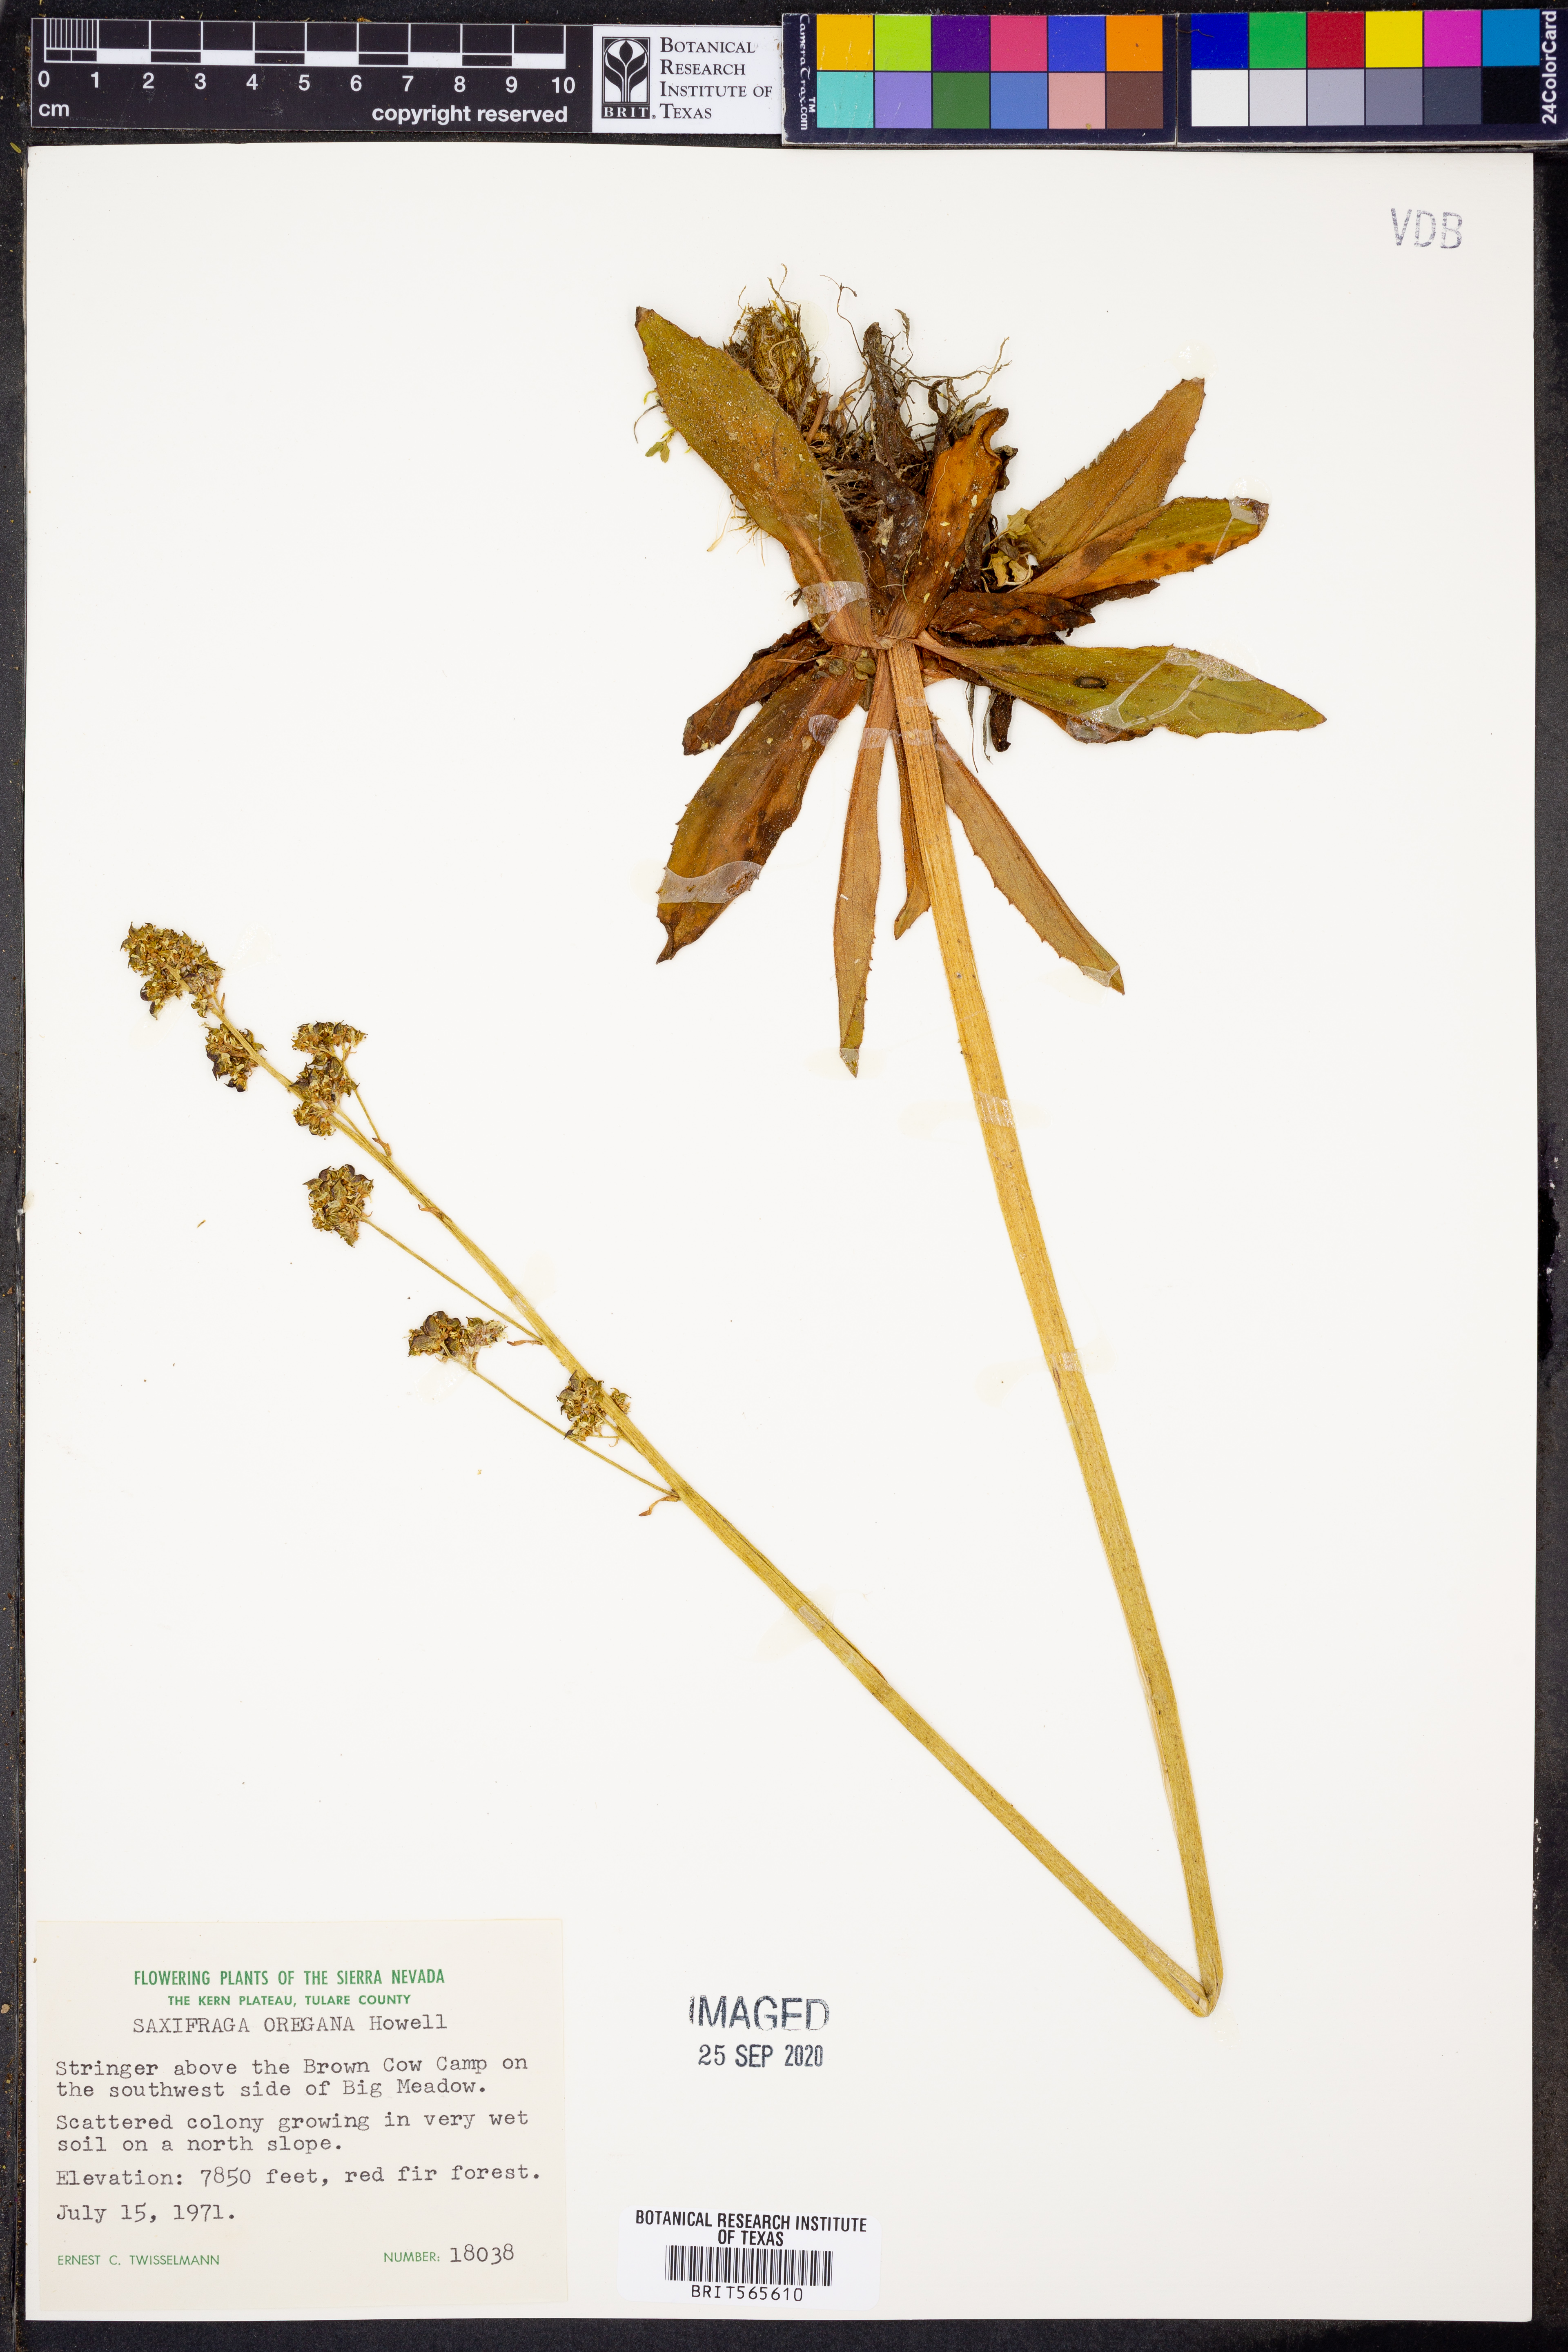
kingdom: Plantae
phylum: Tracheophyta
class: Magnoliopsida
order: Saxifragales
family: Saxifragaceae
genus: Micranthes
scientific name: Micranthes oregana
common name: Bog saxifrage
